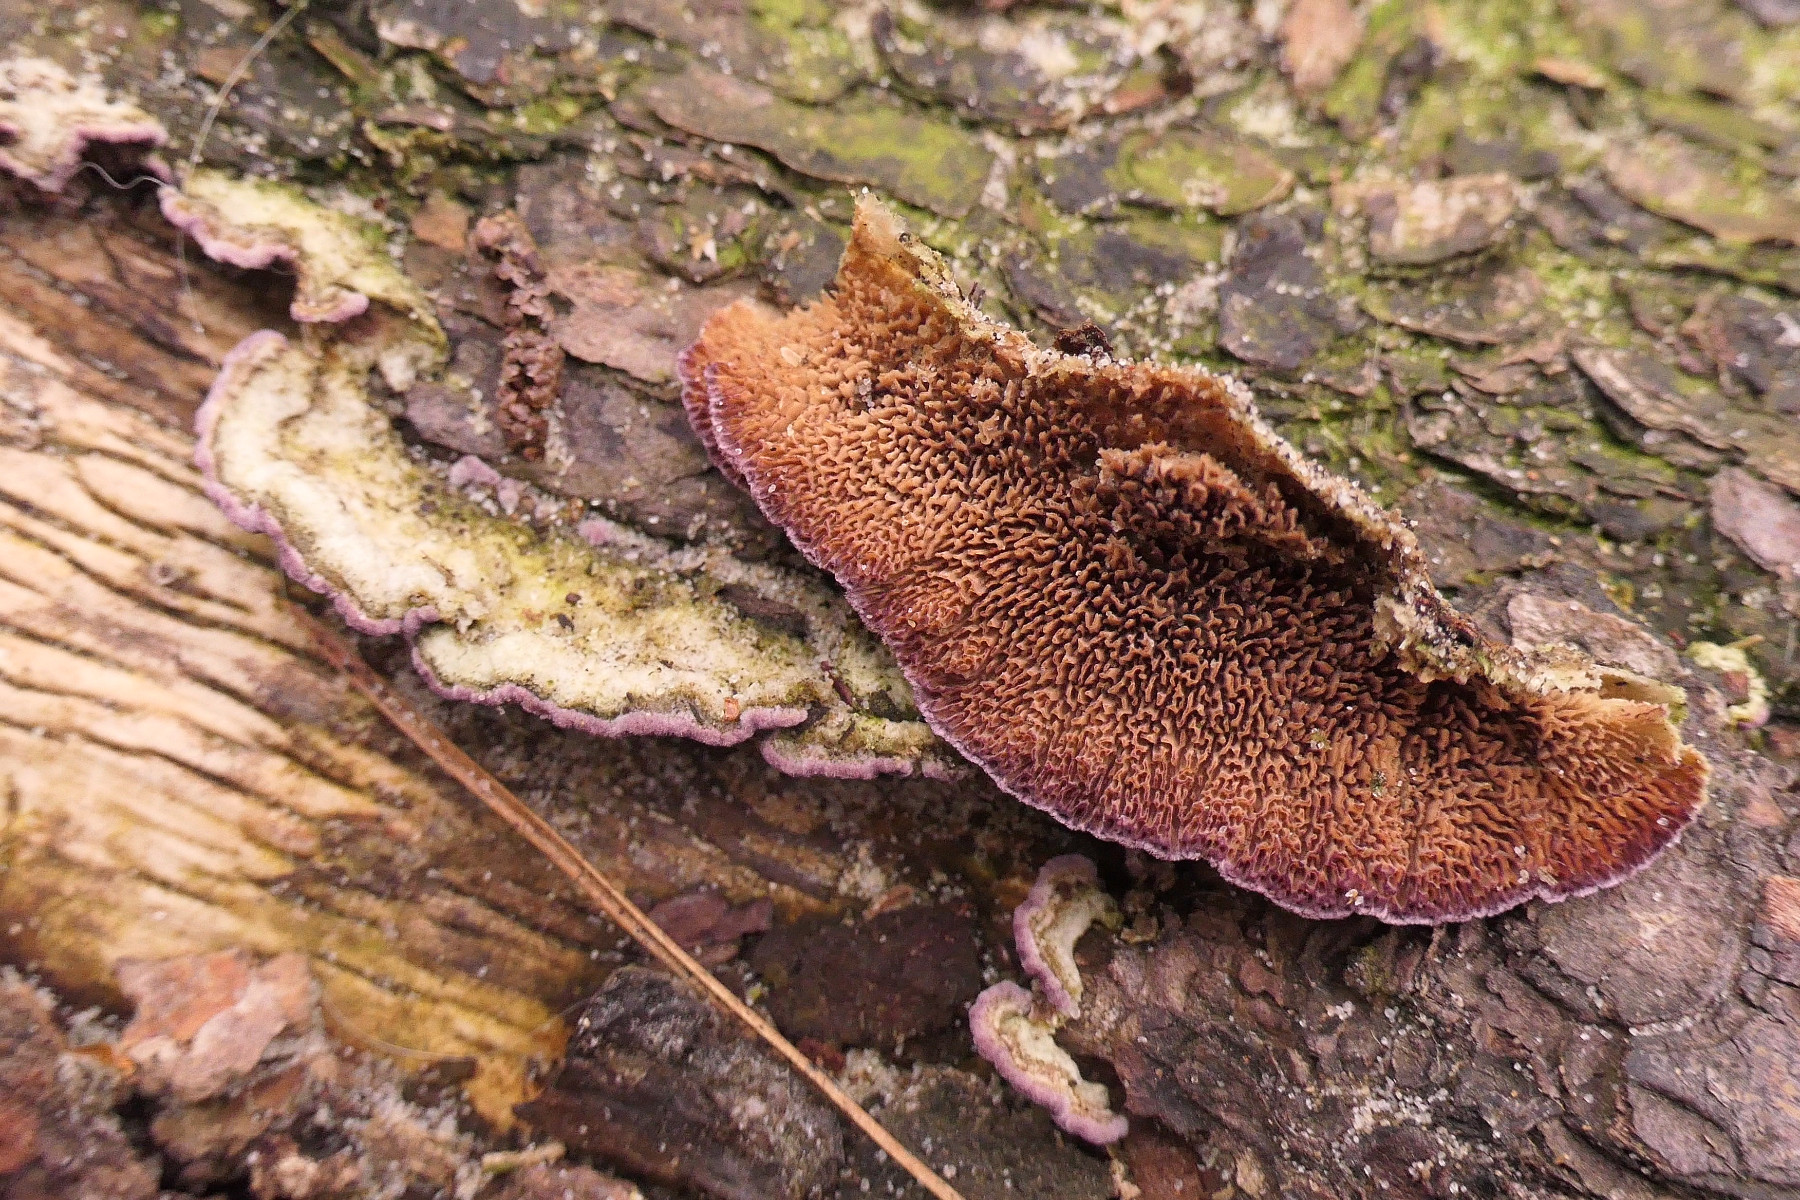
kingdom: Fungi
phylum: Basidiomycota
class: Agaricomycetes
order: Hymenochaetales
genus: Trichaptum
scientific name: Trichaptum fuscoviolaceum
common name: tandet violporesvamp
